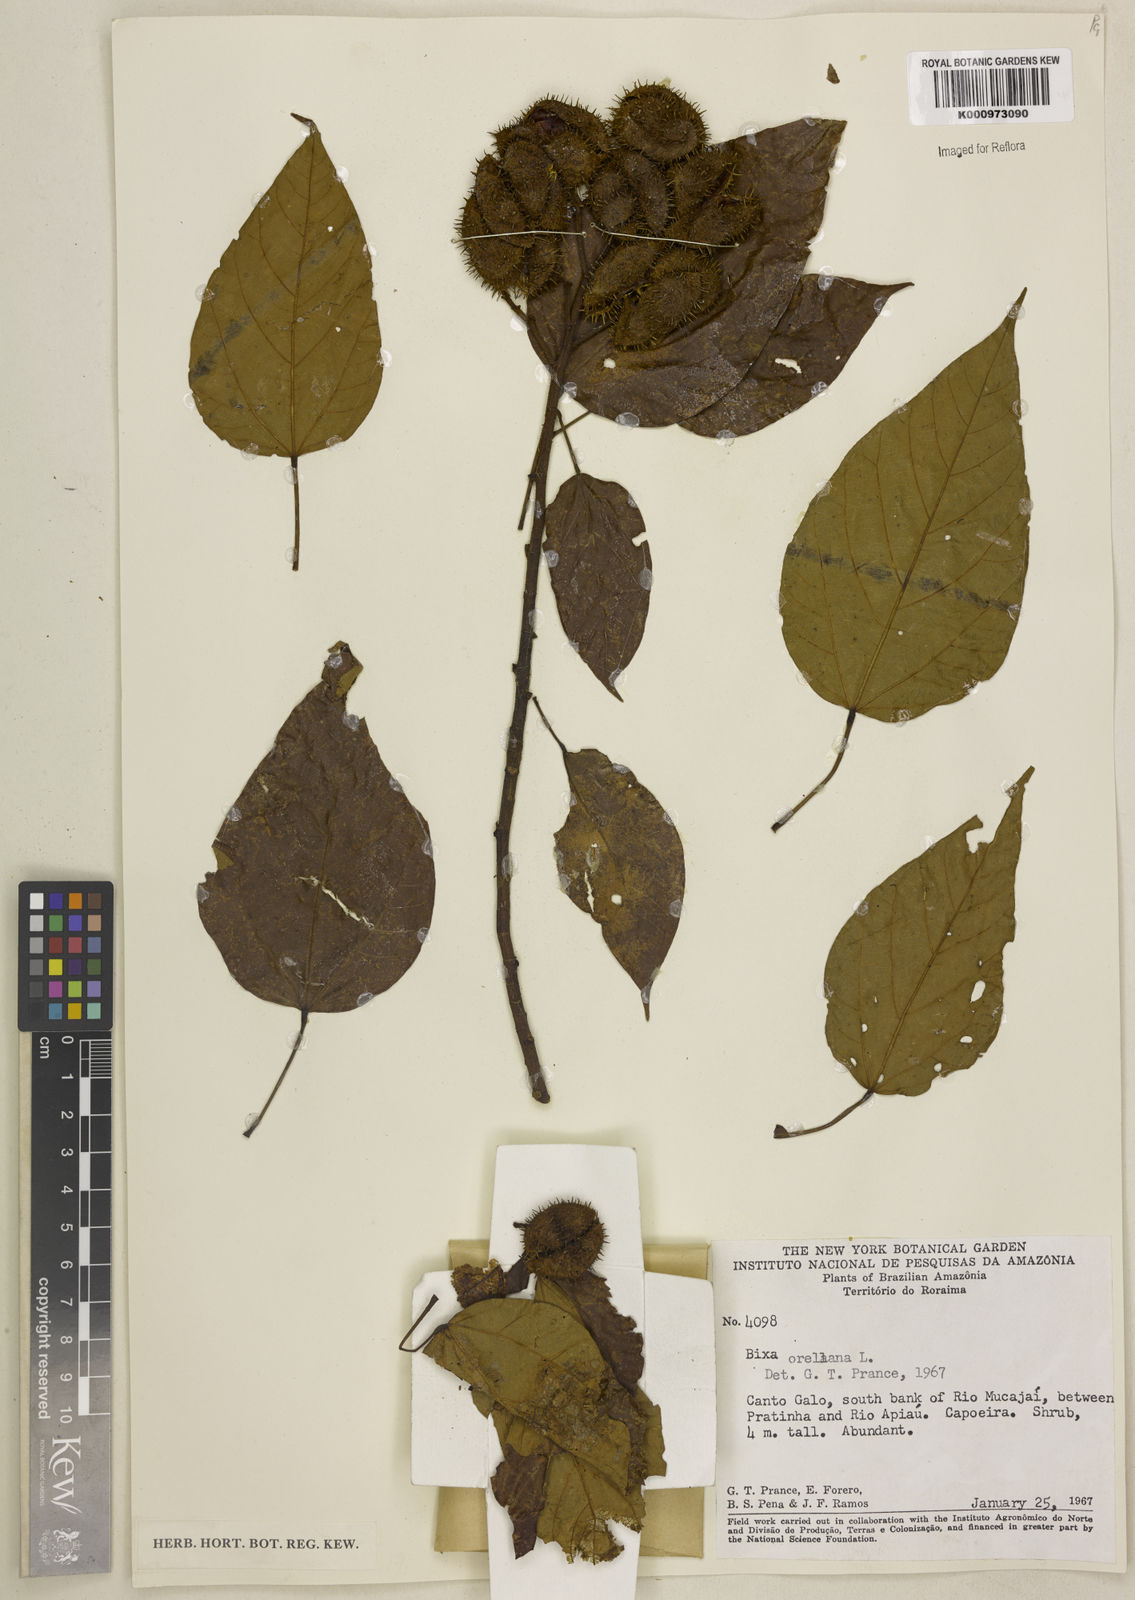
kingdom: Plantae
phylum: Tracheophyta
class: Magnoliopsida
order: Malvales
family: Bixaceae
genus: Bixa
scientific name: Bixa excelsa
